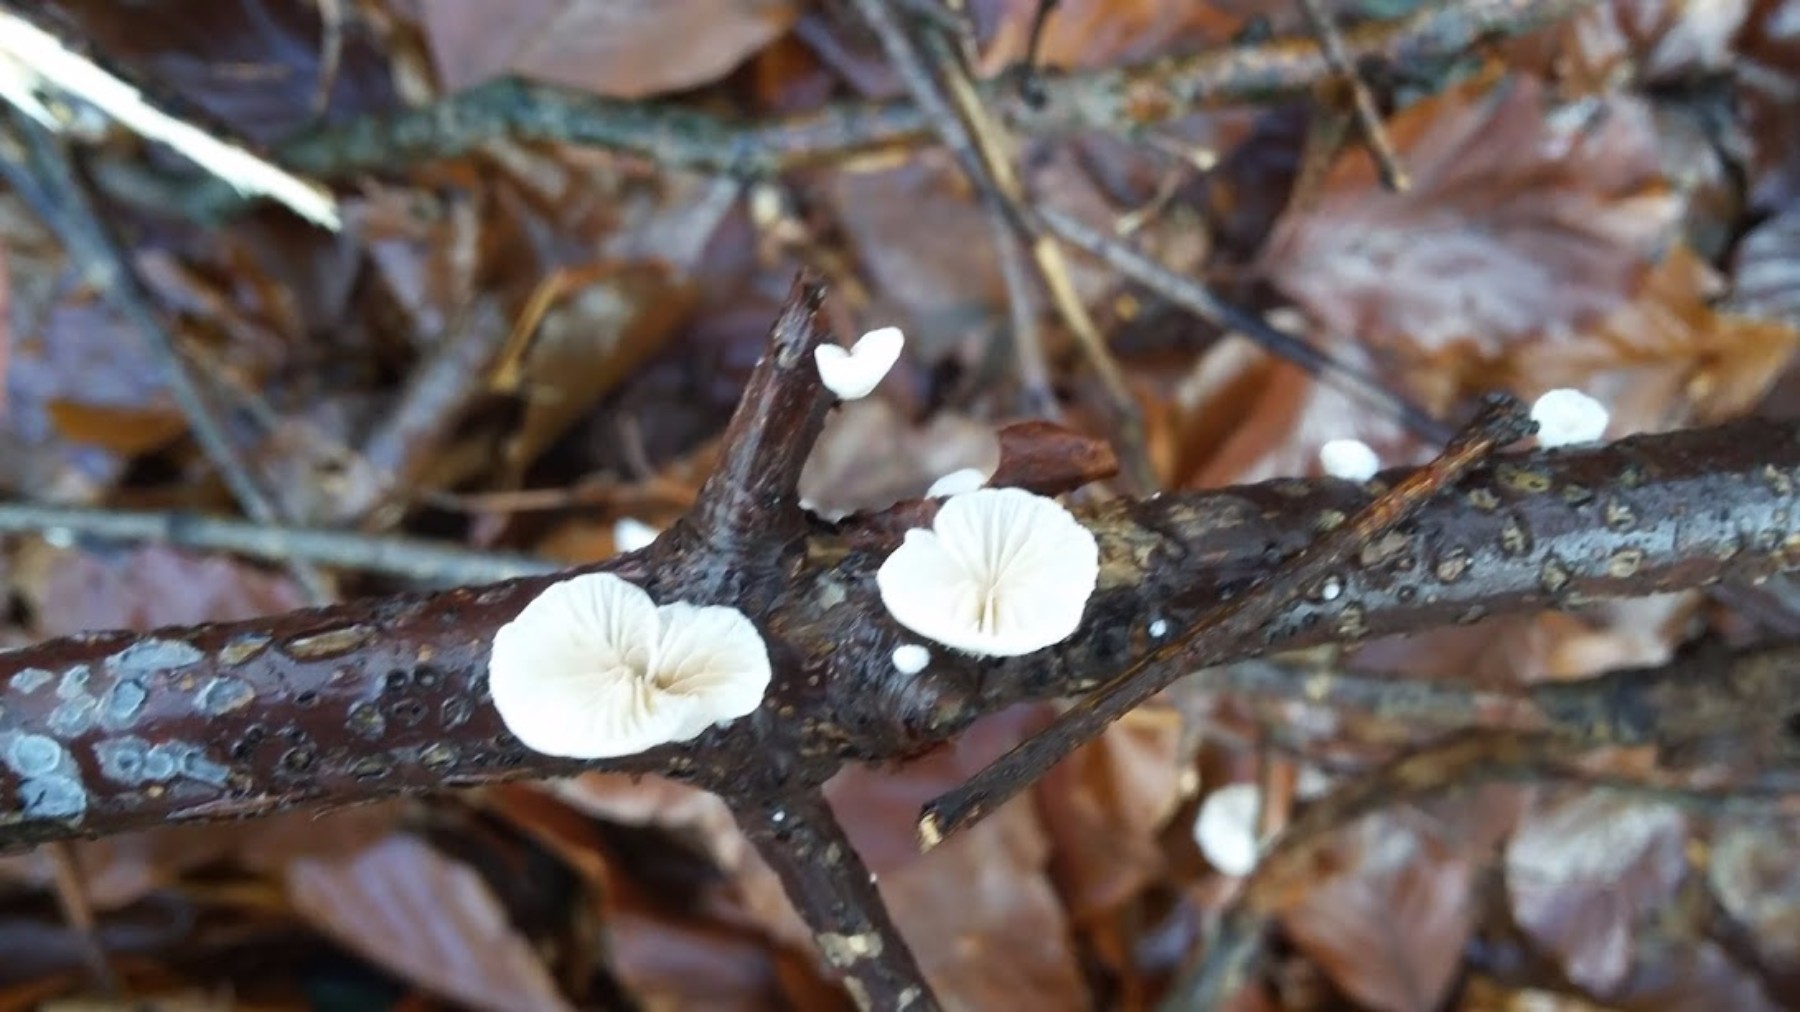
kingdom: Fungi
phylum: Basidiomycota
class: Agaricomycetes
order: Agaricales
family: Crepidotaceae
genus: Crepidotus
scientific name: Crepidotus
